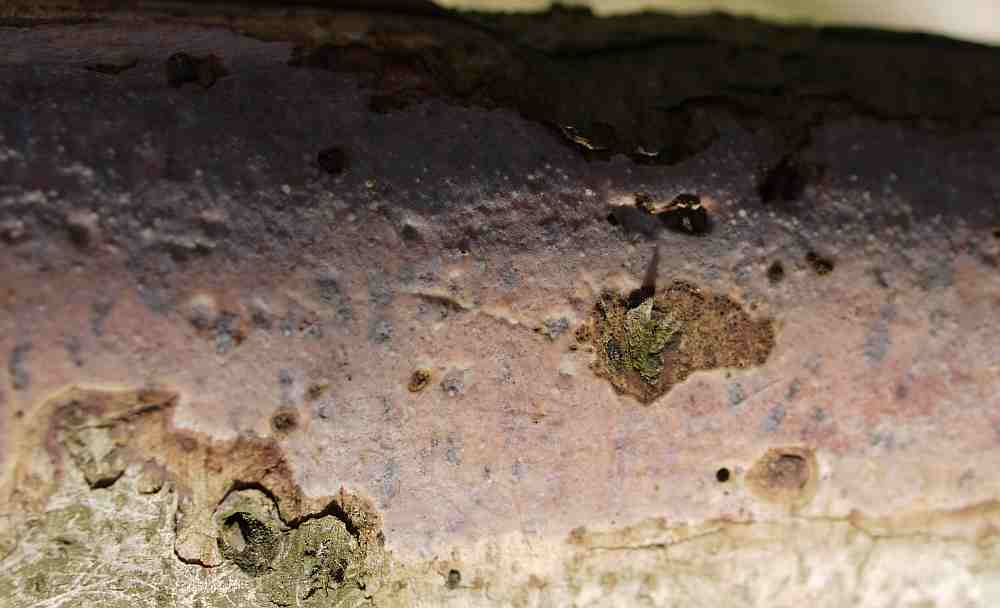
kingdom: Fungi
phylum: Basidiomycota
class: Agaricomycetes
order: Corticiales
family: Vuilleminiaceae
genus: Vuilleminia
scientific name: Vuilleminia coryli
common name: hassel-barksprænger
